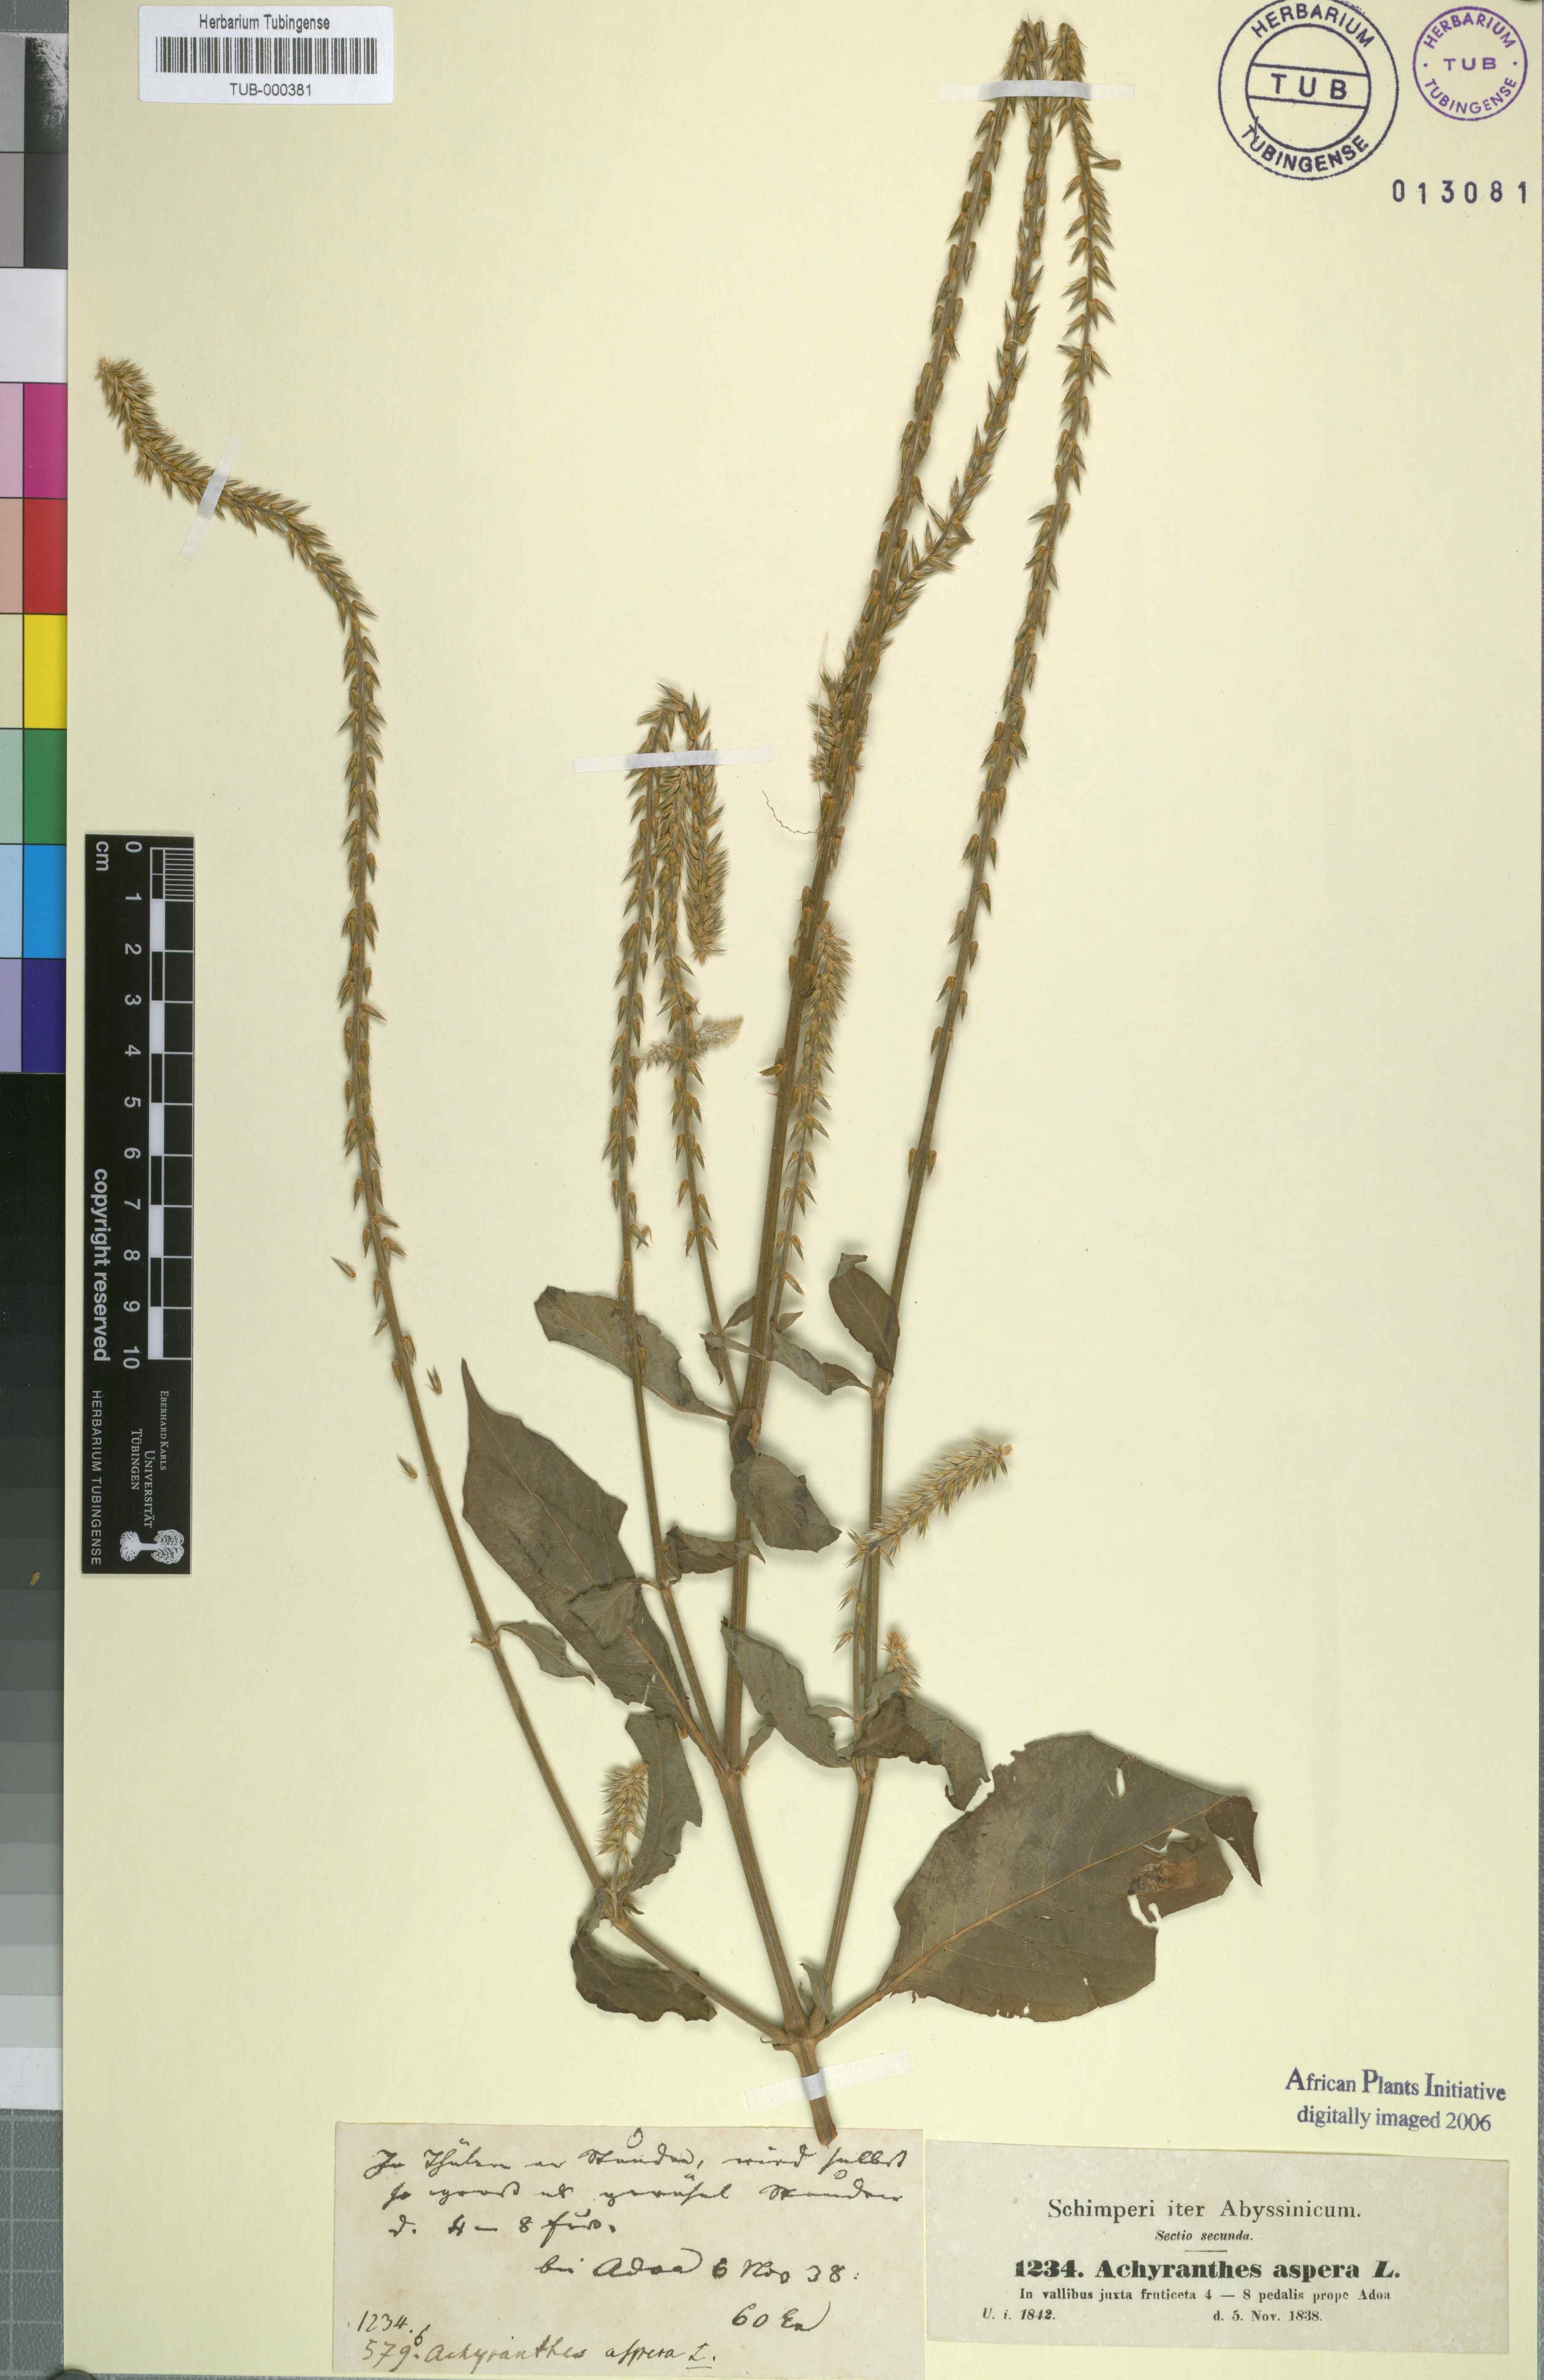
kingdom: Plantae
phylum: Tracheophyta
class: Magnoliopsida
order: Caryophyllales
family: Amaranthaceae
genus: Achyranthes
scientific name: Achyranthes aspera
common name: Devil's horsewhip
